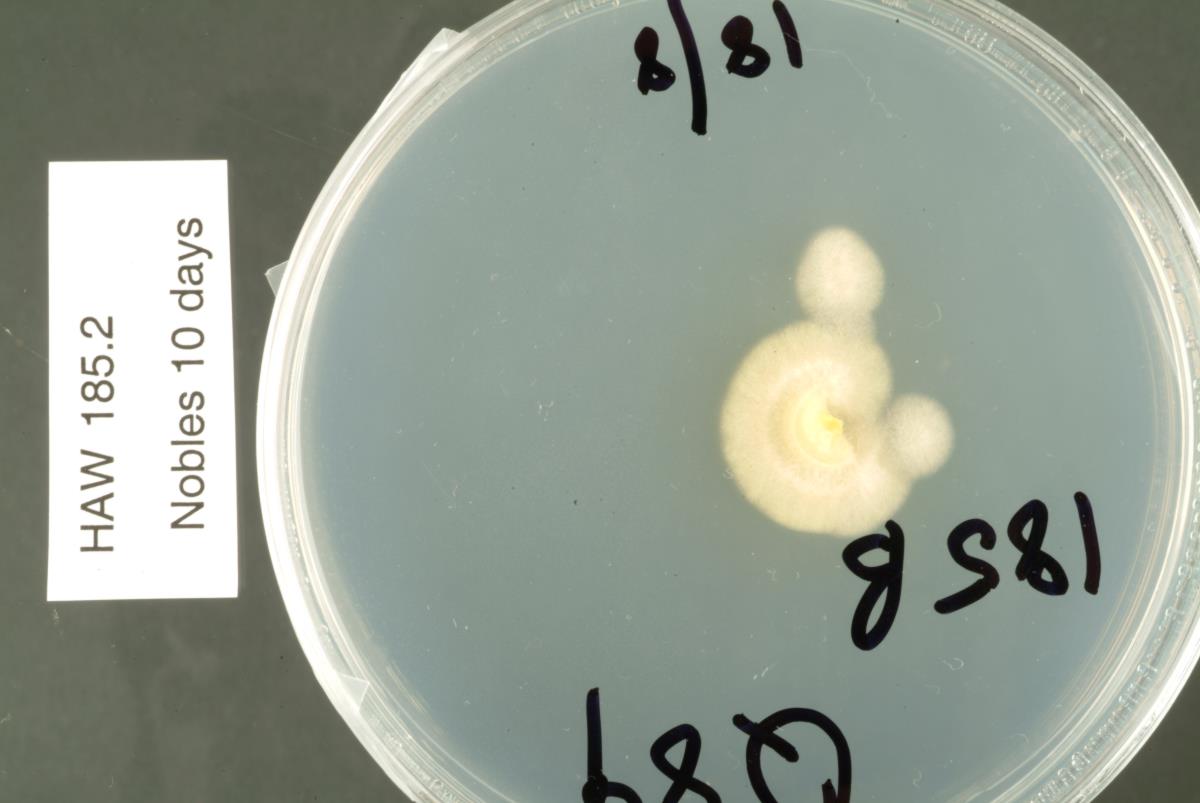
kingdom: Fungi
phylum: Ascomycota
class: Leotiomycetes
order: Rhytismatales
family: Rhytismataceae
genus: Lophodermium
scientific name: Lophodermium
